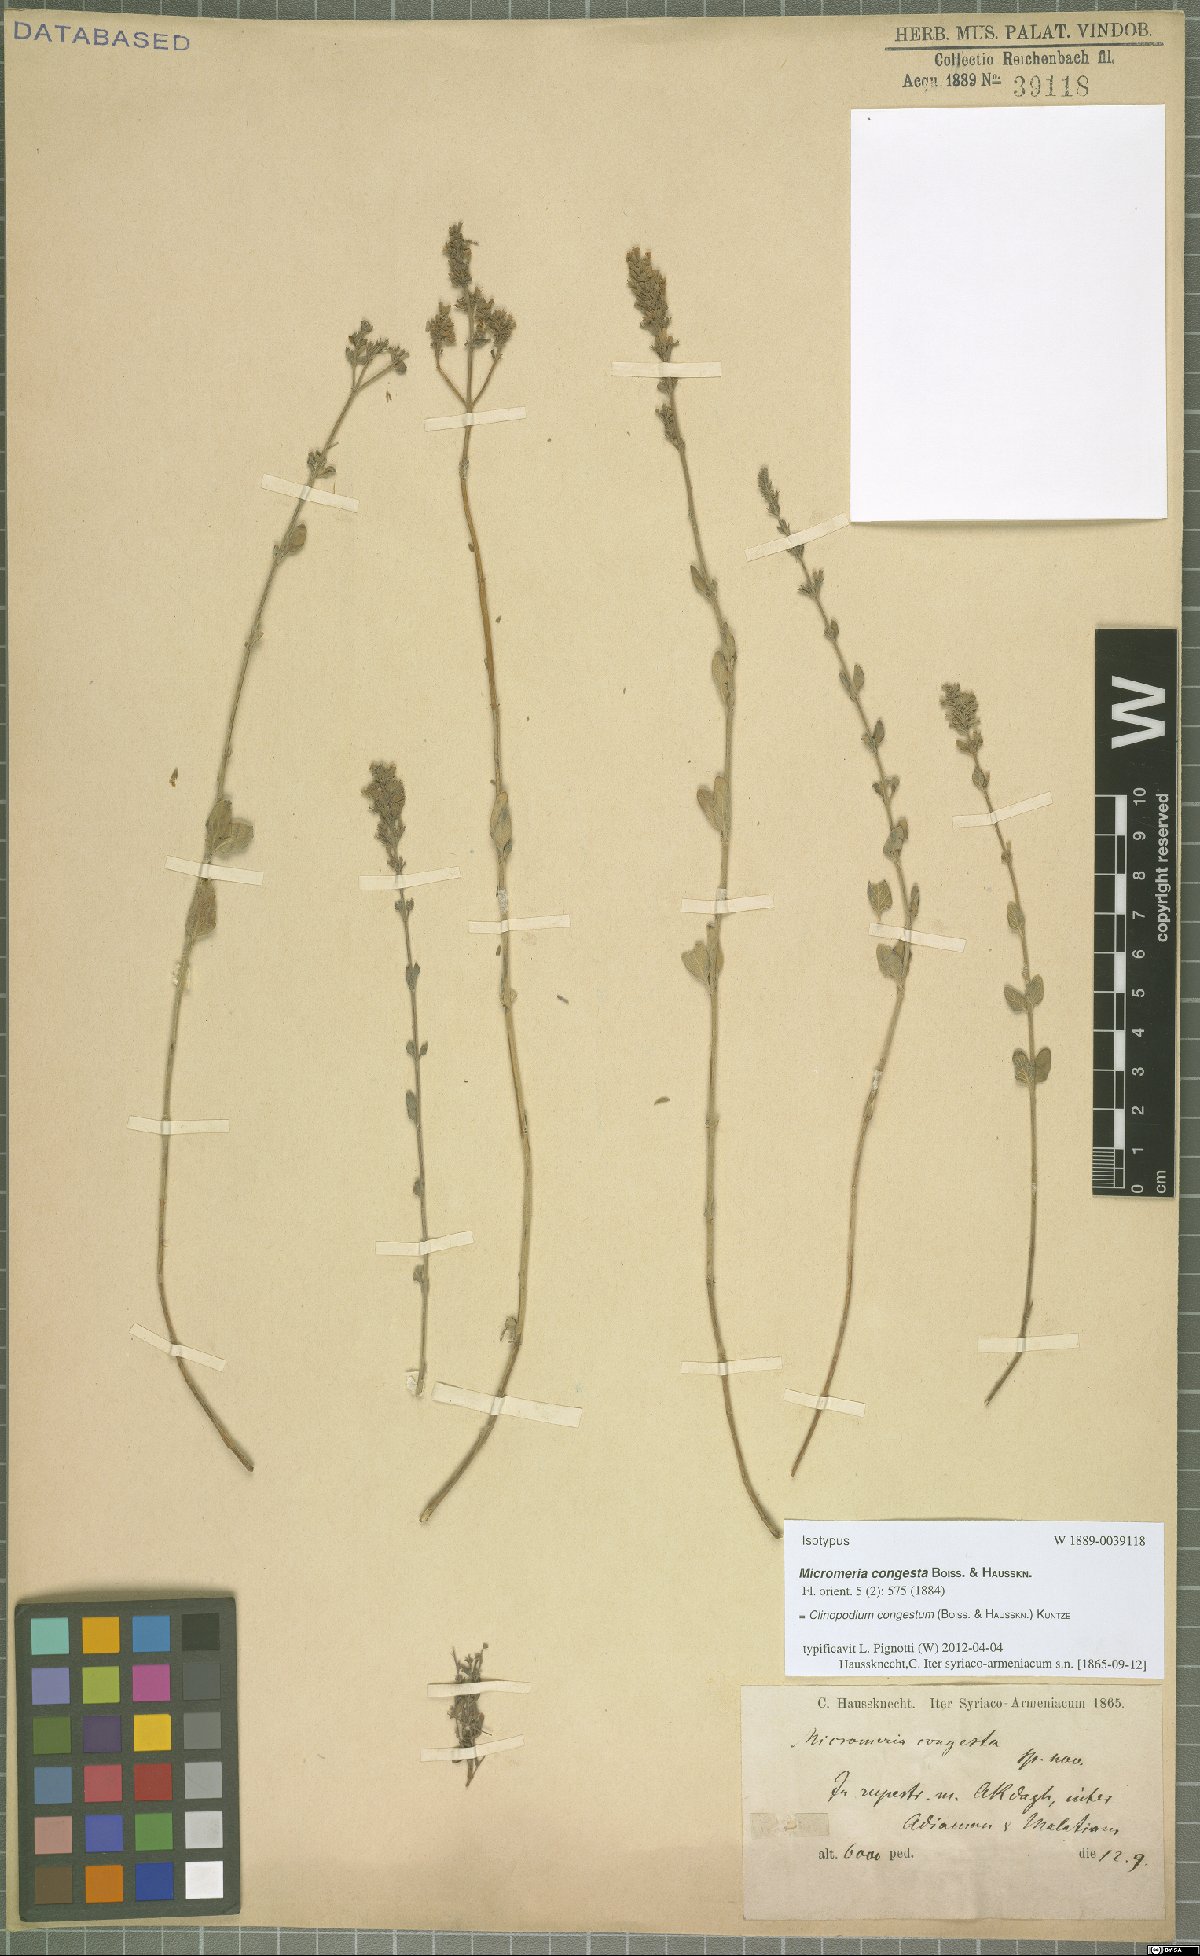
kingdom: Plantae
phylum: Tracheophyta
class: Magnoliopsida
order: Lamiales
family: Lamiaceae
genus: Clinopodium
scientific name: Clinopodium congestum
